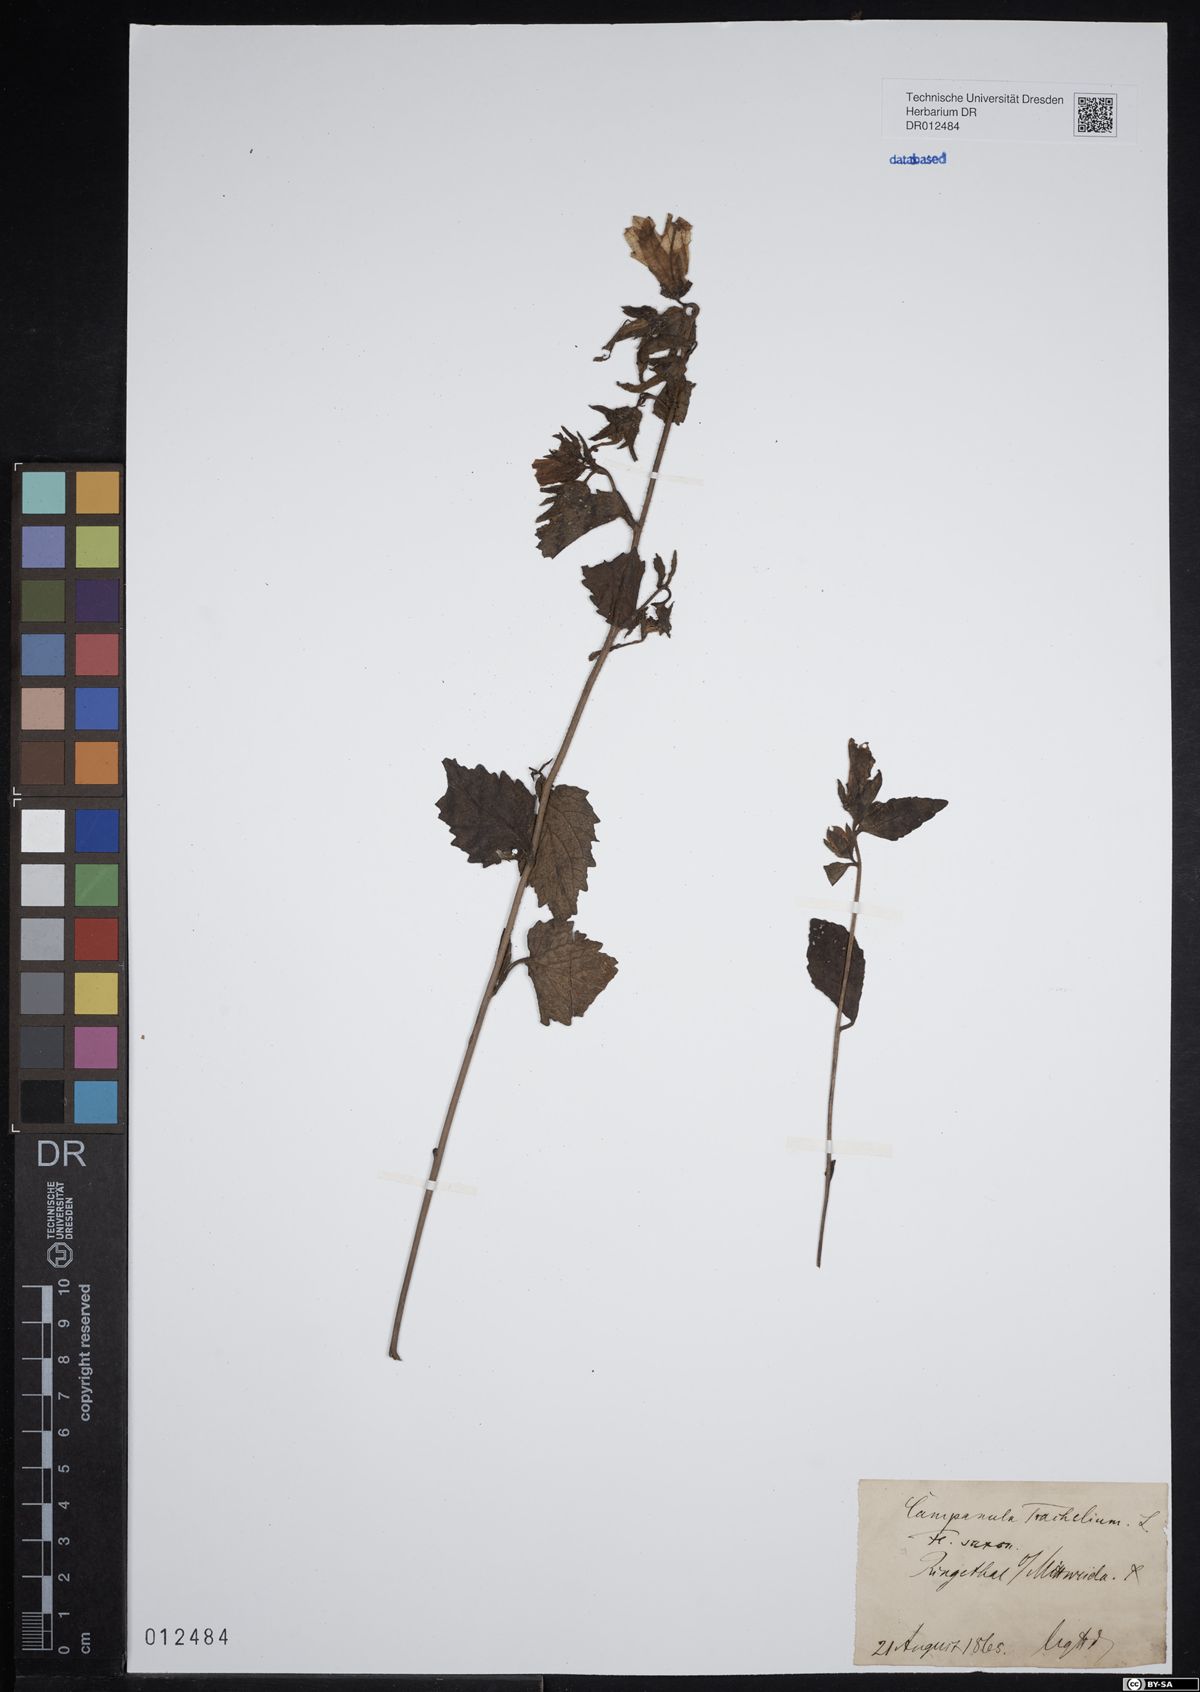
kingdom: Plantae
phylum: Tracheophyta
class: Magnoliopsida
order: Asterales
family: Campanulaceae
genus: Campanula
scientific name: Campanula trachelium
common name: Nettle-leaved bellflower
